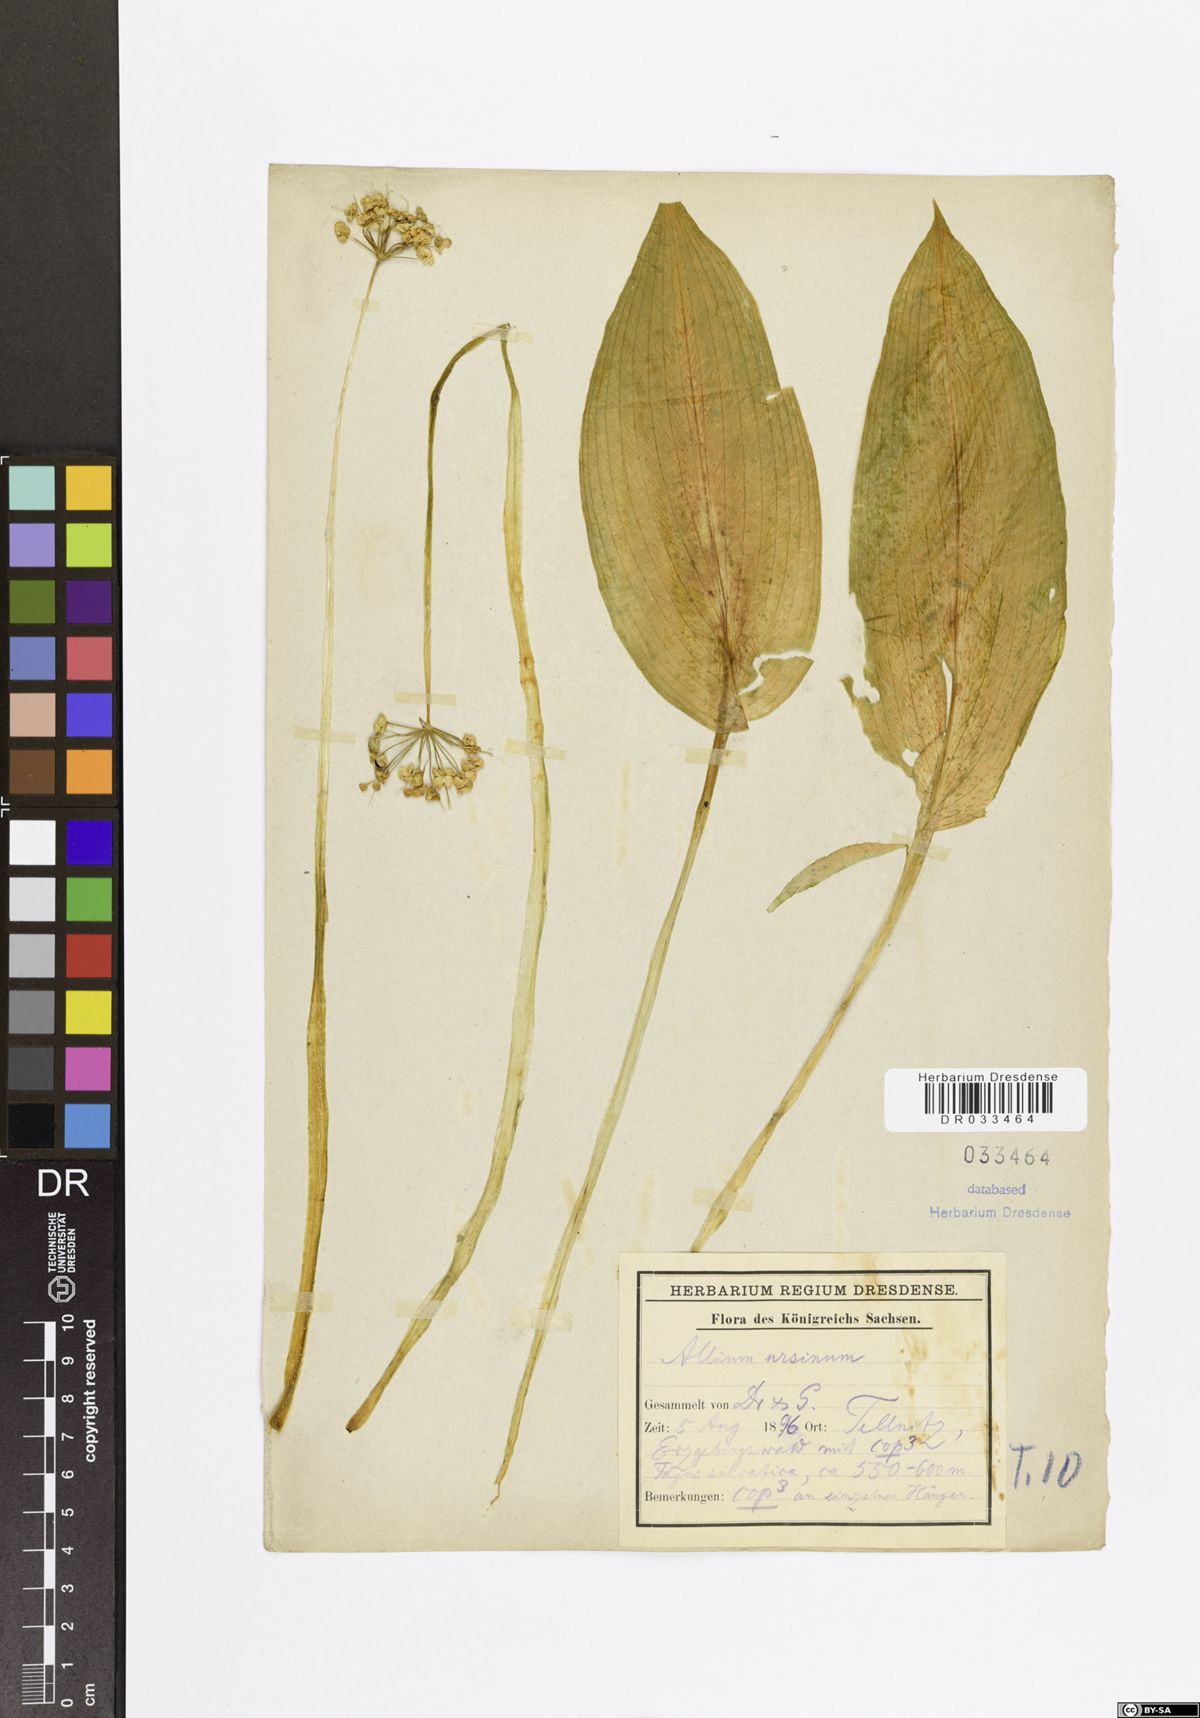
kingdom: Plantae
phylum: Tracheophyta
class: Liliopsida
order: Asparagales
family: Amaryllidaceae
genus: Allium
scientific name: Allium ursinum
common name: Ramsons
